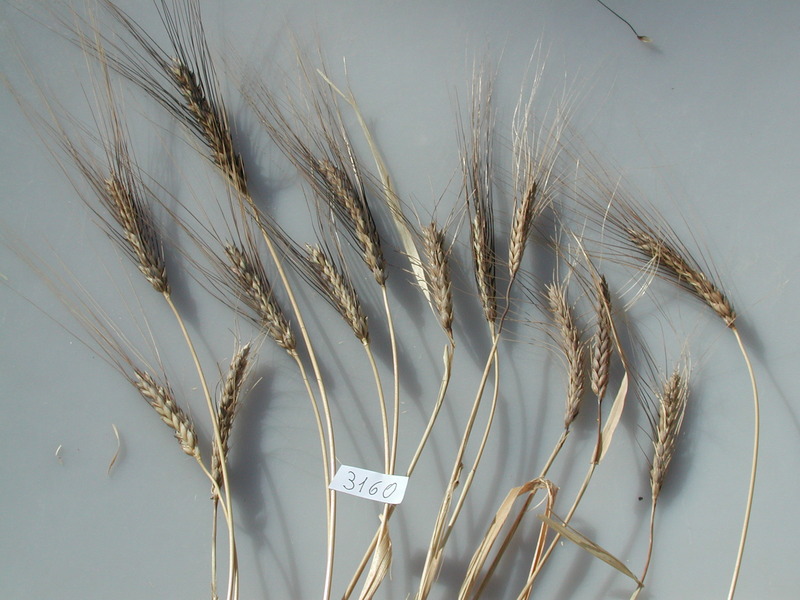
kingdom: Plantae
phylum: Tracheophyta
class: Liliopsida
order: Poales
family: Poaceae
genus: Triticum
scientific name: Triticum turgidum
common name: Wheat
